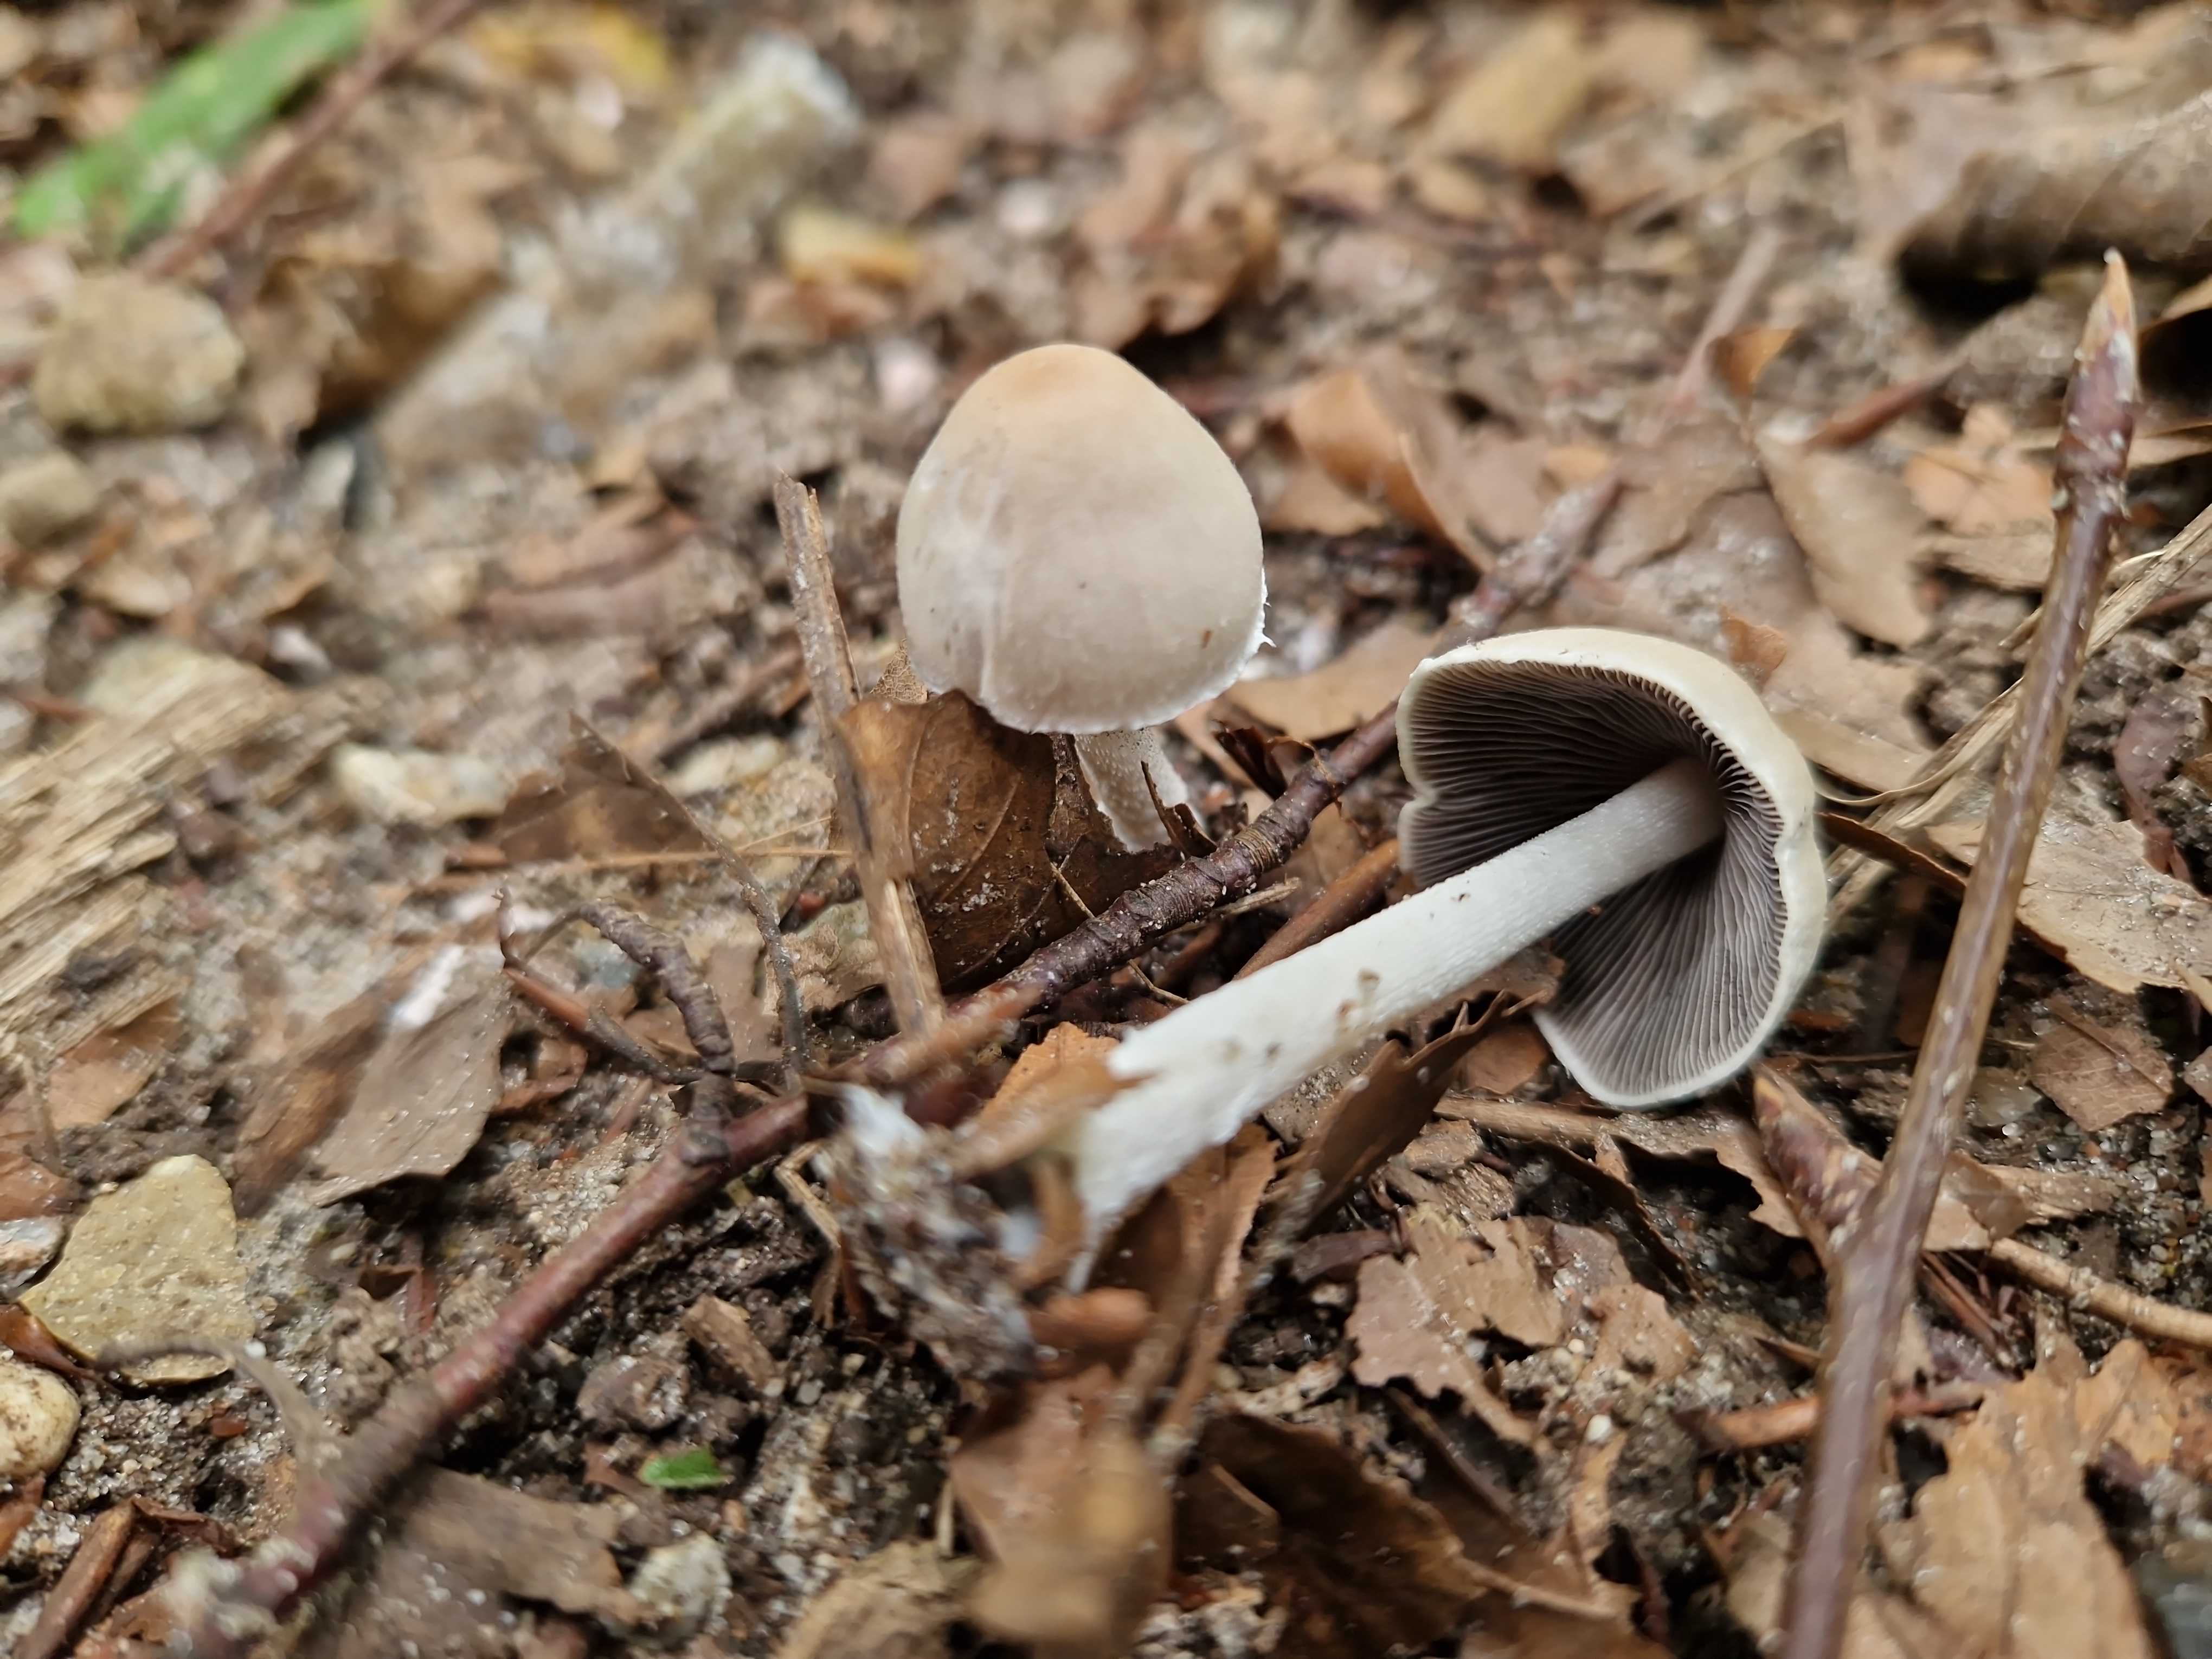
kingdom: Fungi
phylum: Basidiomycota
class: Agaricomycetes
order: Agaricales
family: Psathyrellaceae
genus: Coprinopsis
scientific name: Coprinopsis marcescibilis
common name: ruderat-blækhat
